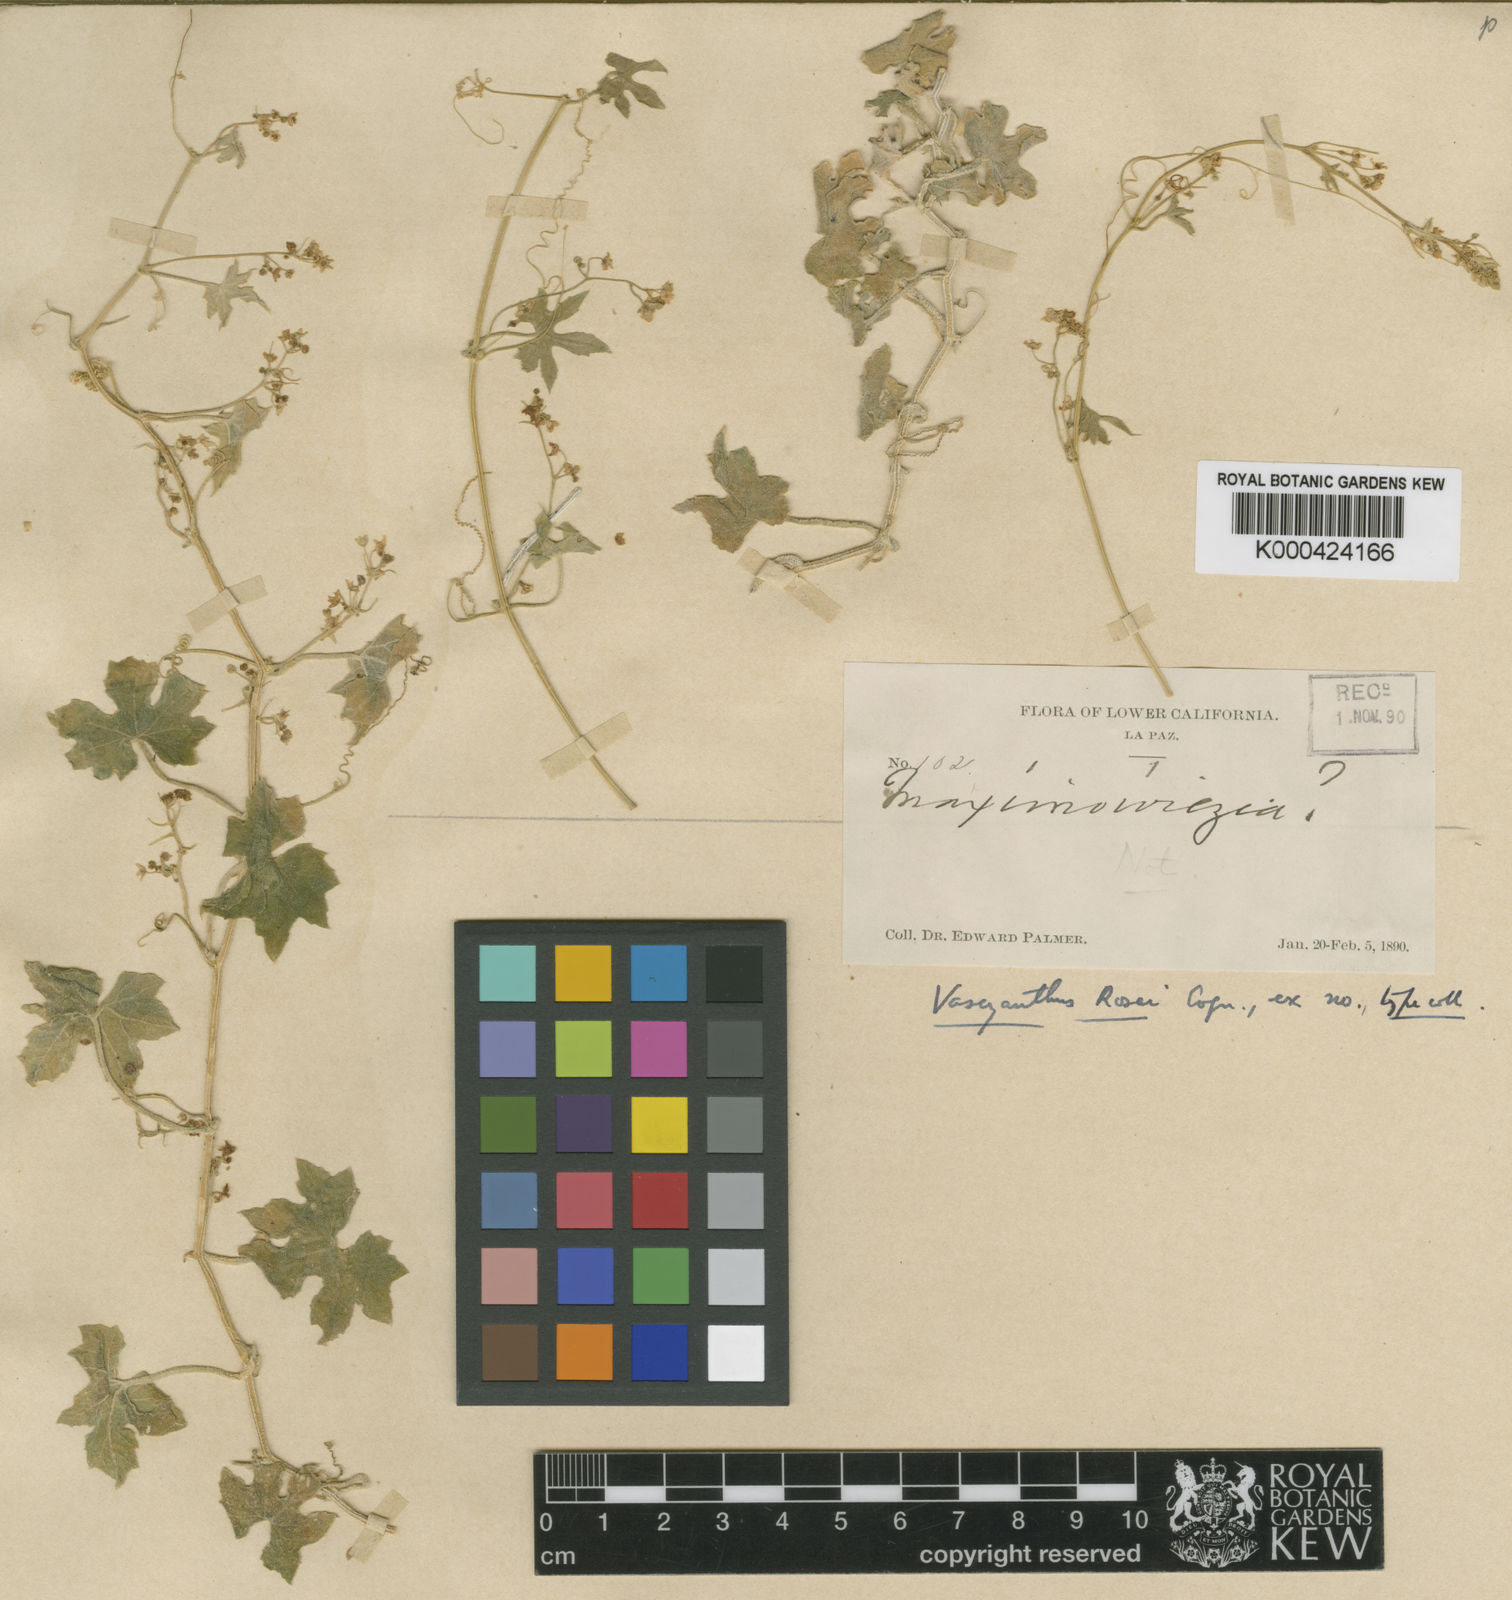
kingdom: Plantae
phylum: Tracheophyta
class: Magnoliopsida
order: Cucurbitales
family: Cucurbitaceae
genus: Echinopepon
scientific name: Echinopepon rosei
